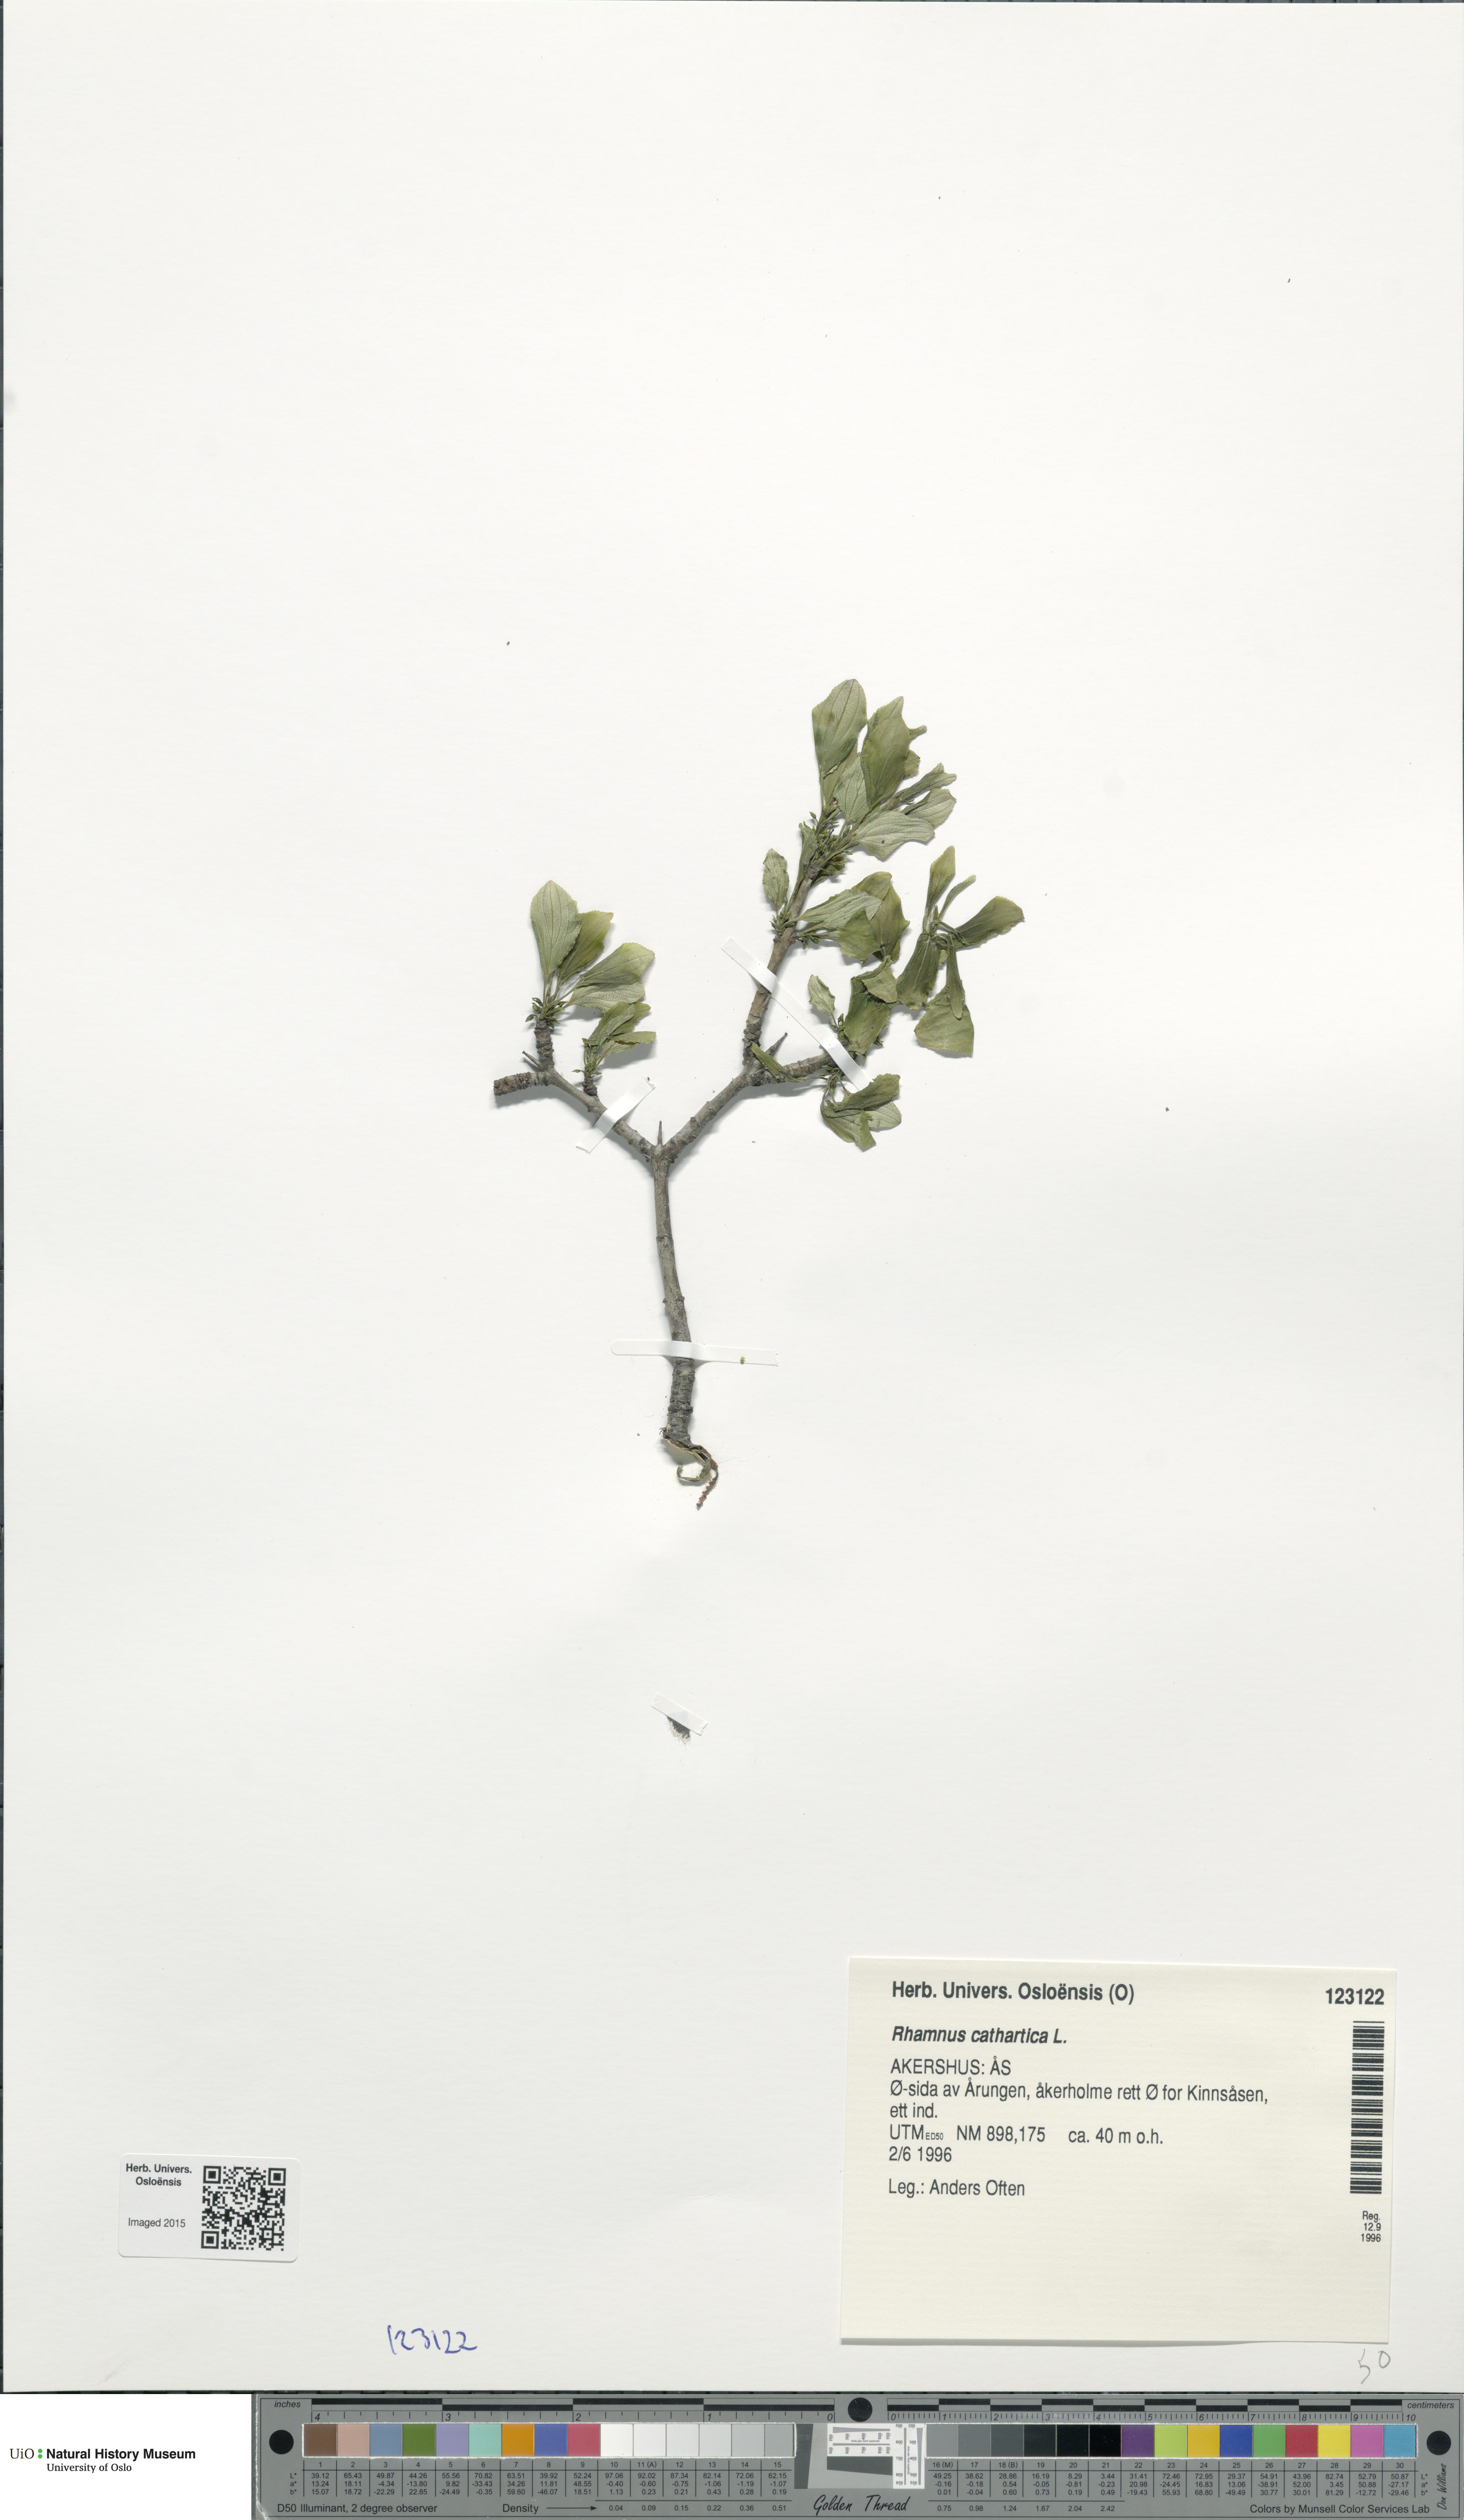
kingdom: Plantae
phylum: Tracheophyta
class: Magnoliopsida
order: Rosales
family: Rhamnaceae
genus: Rhamnus
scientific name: Rhamnus cathartica
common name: Common buckthorn
